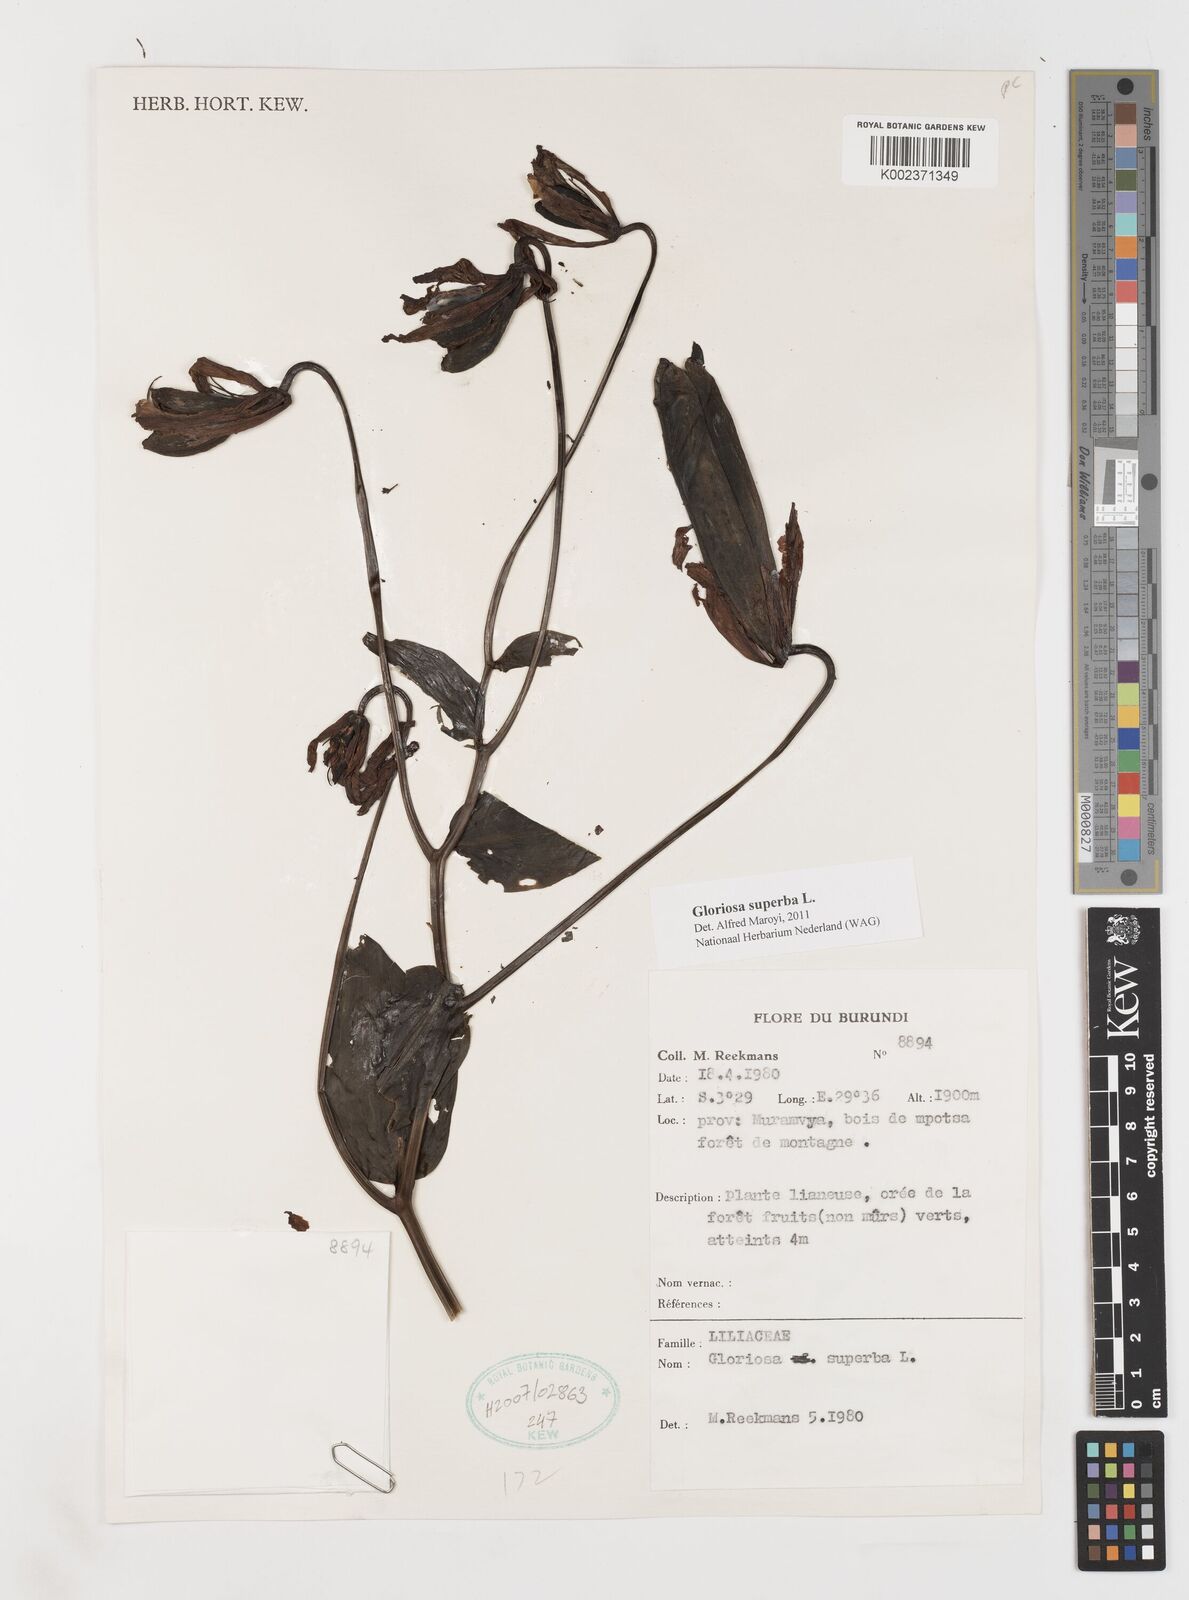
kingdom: Plantae
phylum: Tracheophyta
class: Liliopsida
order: Liliales
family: Colchicaceae
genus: Gloriosa
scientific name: Gloriosa superba
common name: Flame lily
